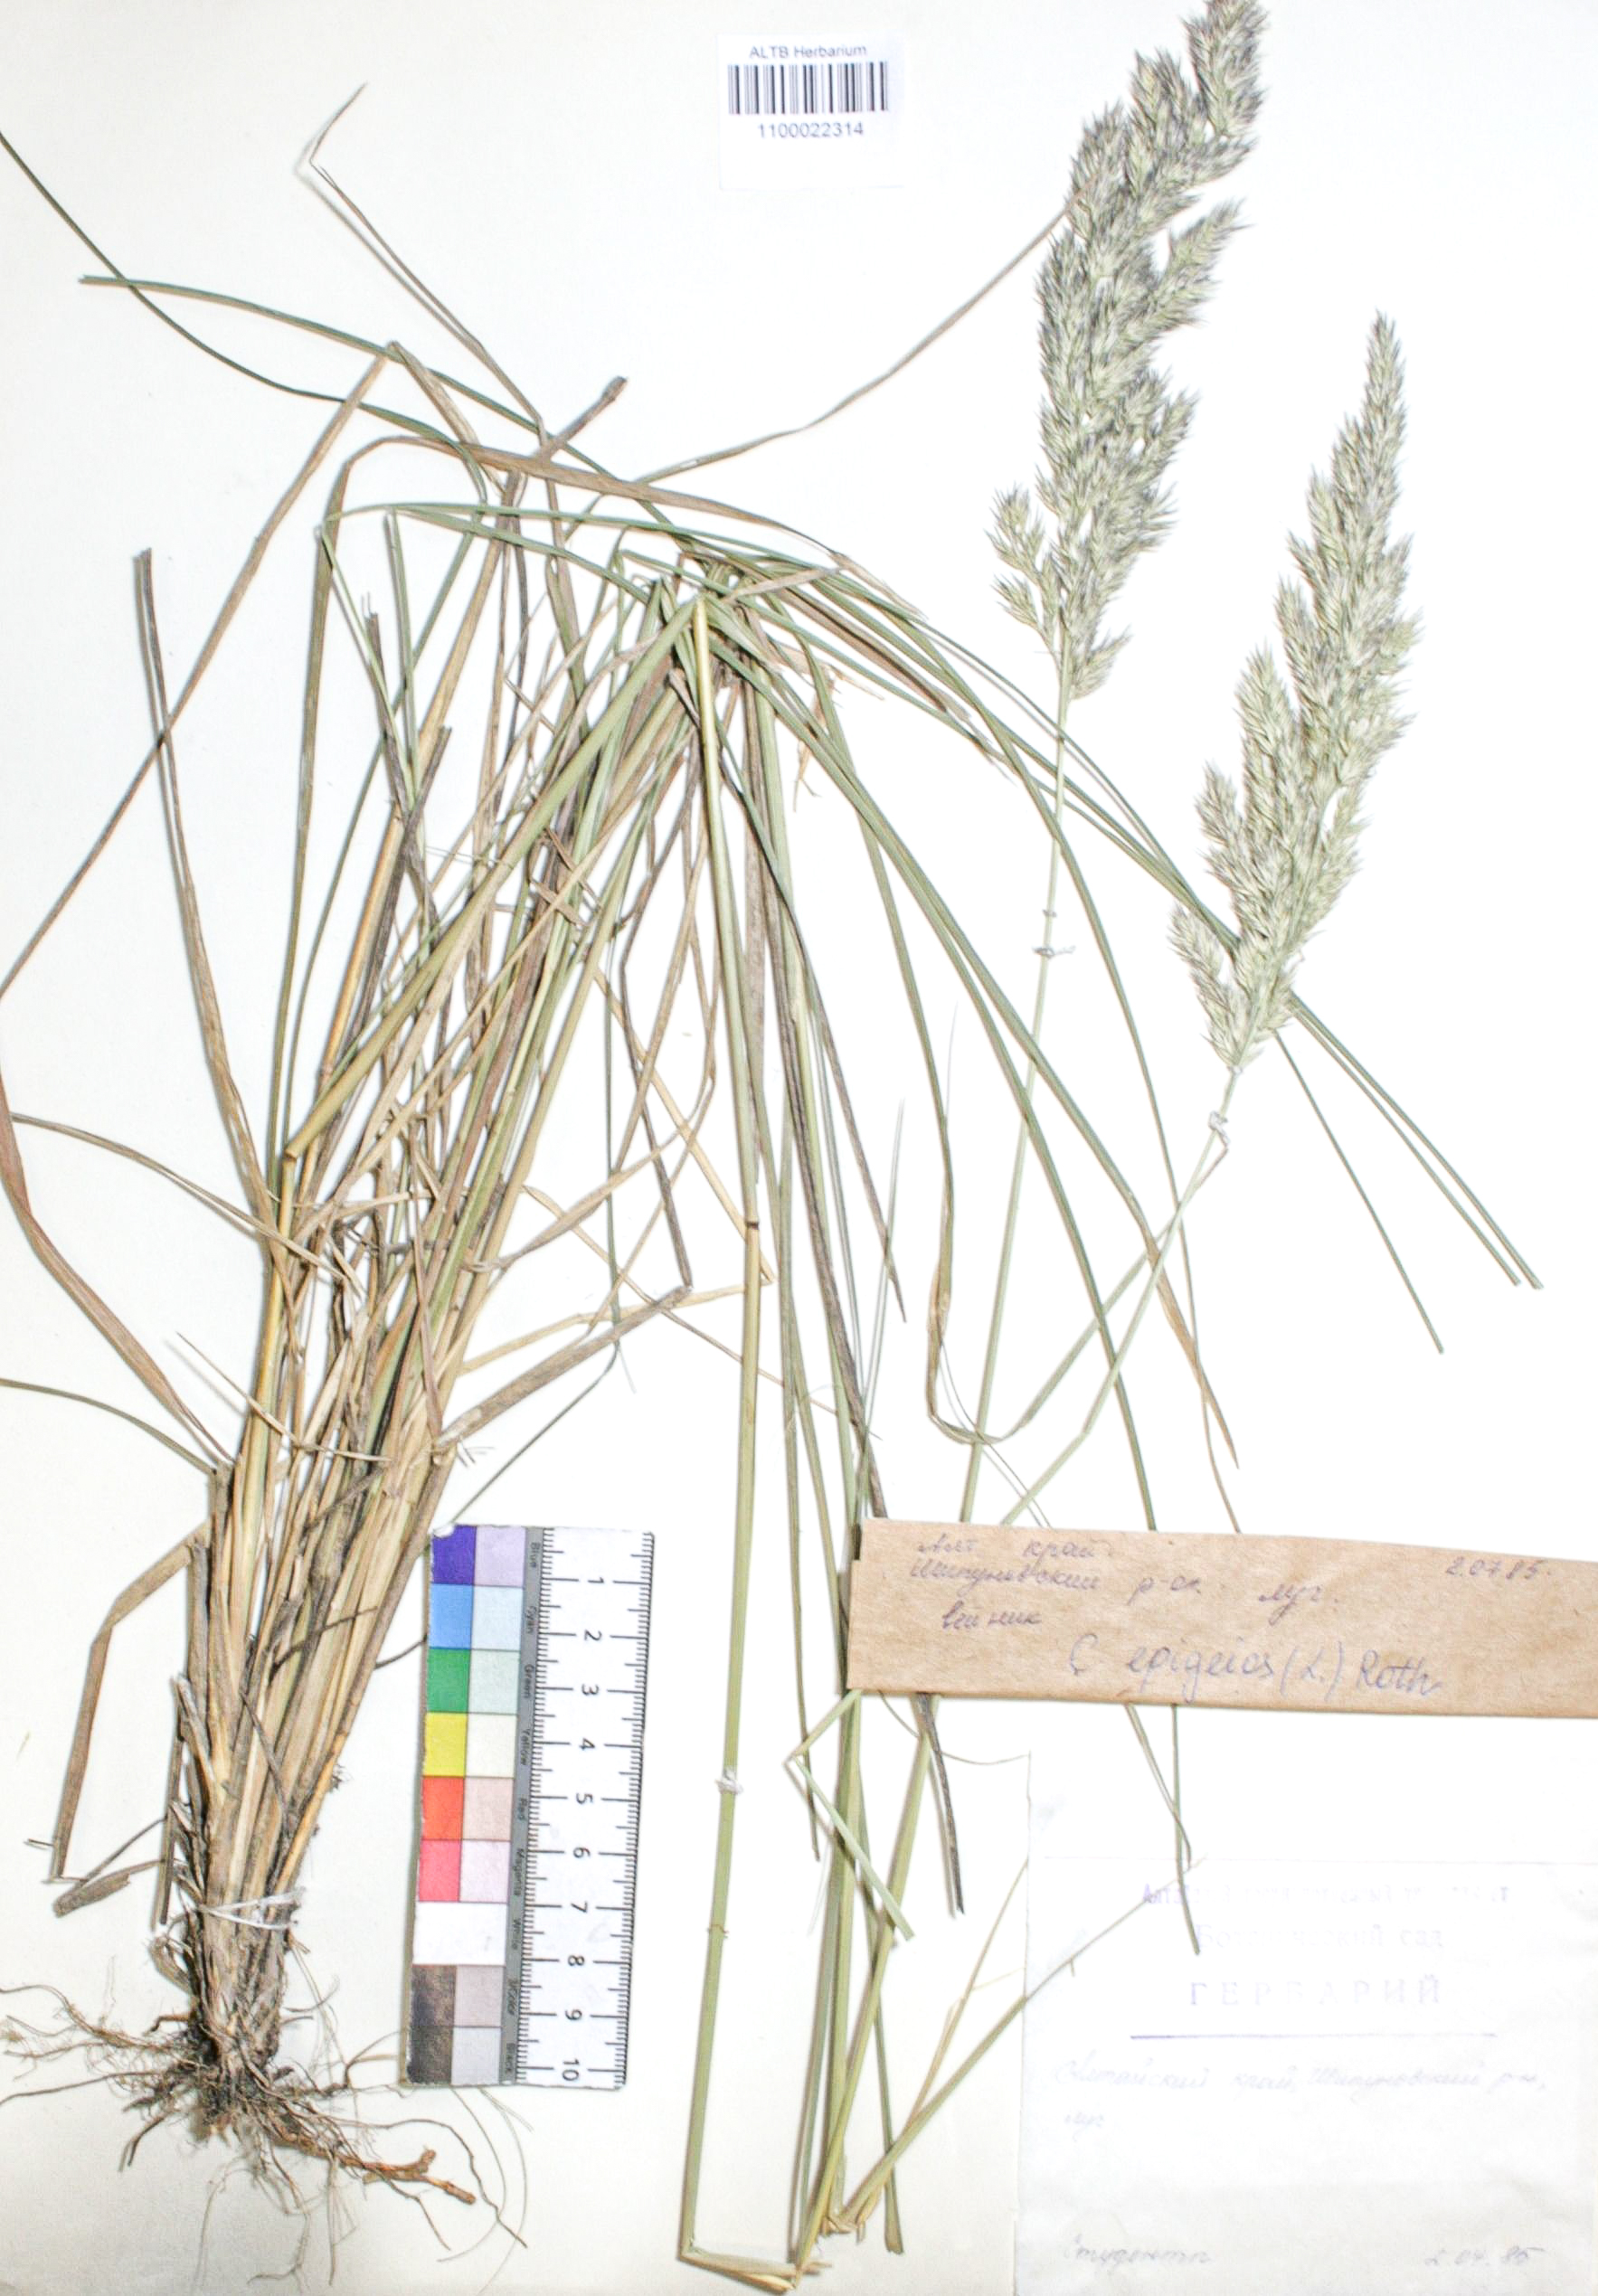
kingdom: Plantae
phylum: Tracheophyta
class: Liliopsida
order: Poales
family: Poaceae
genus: Calamagrostis
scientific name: Calamagrostis epigejos
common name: Wood small-reed
